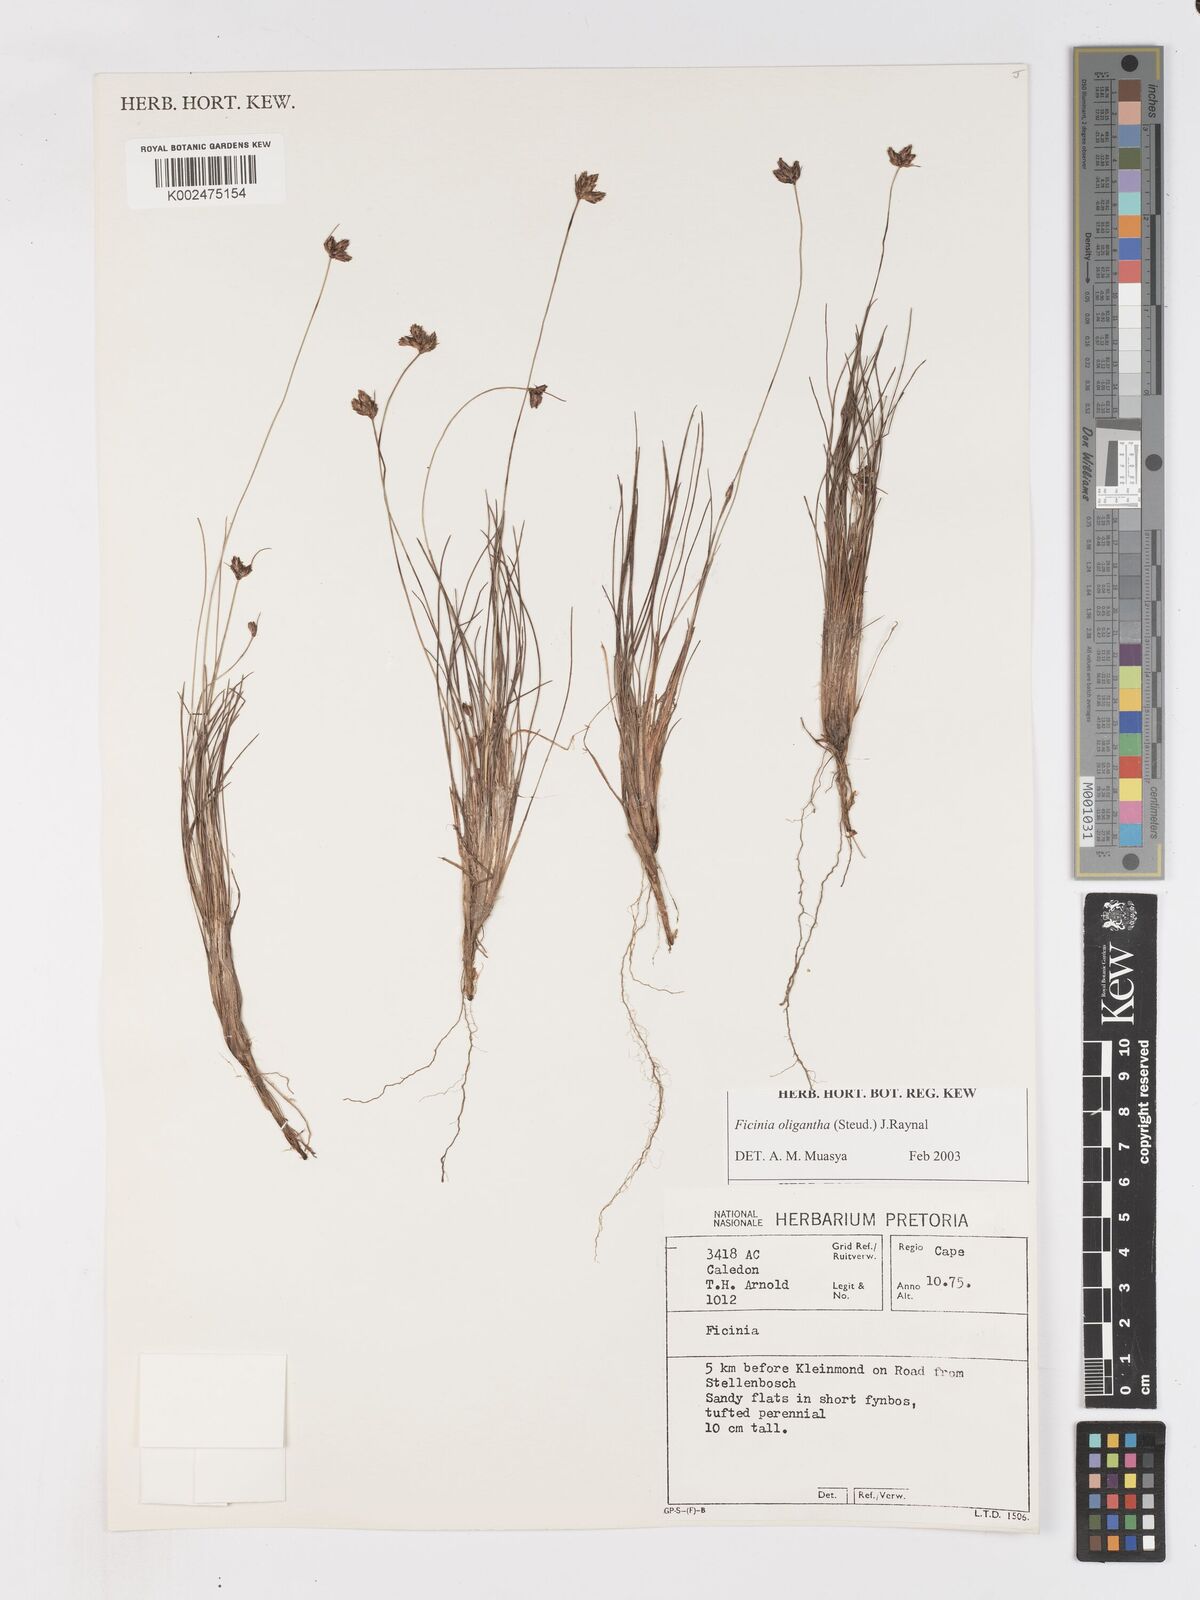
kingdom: Plantae
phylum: Tracheophyta
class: Liliopsida
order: Poales
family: Cyperaceae
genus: Ficinia
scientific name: Ficinia stolonifera
